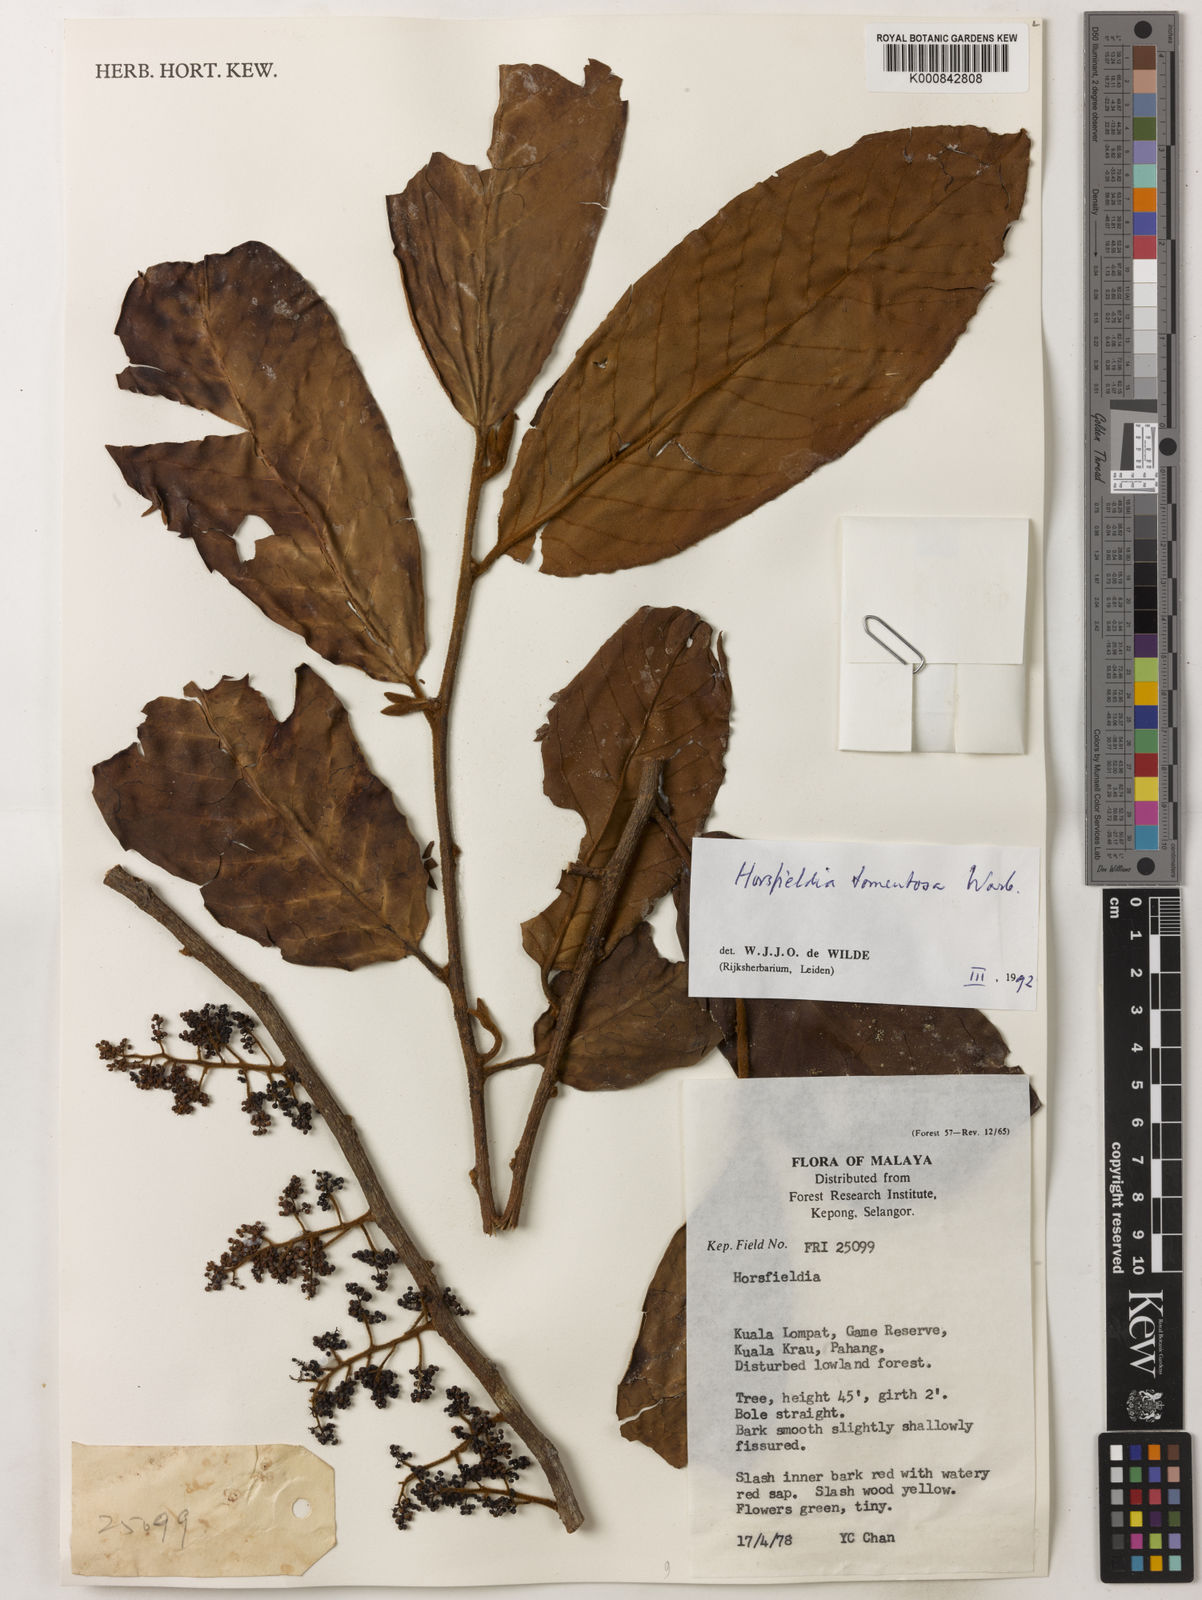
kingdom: Plantae
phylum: Tracheophyta
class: Magnoliopsida
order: Magnoliales
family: Myristicaceae
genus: Horsfieldia
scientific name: Horsfieldia tomentosa
